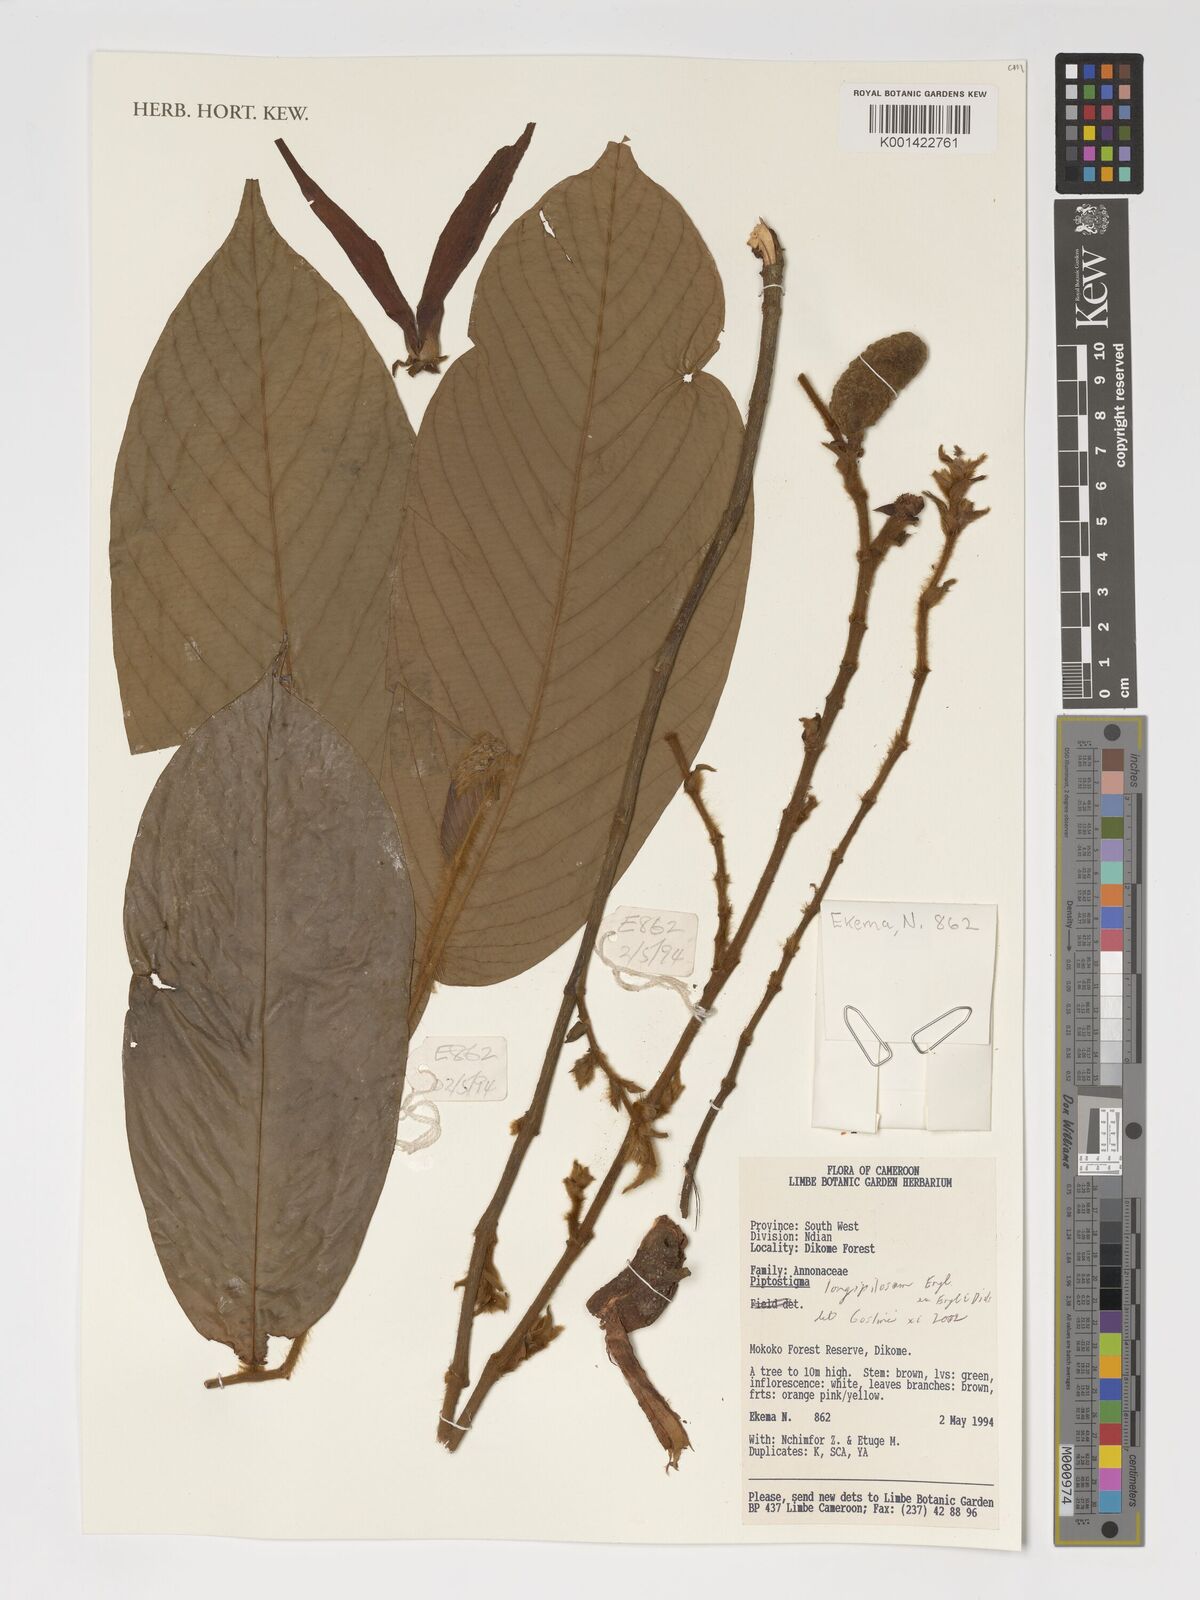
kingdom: Plantae
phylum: Tracheophyta
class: Magnoliopsida
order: Magnoliales
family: Annonaceae
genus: Piptostigma
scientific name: Piptostigma longepilosum
